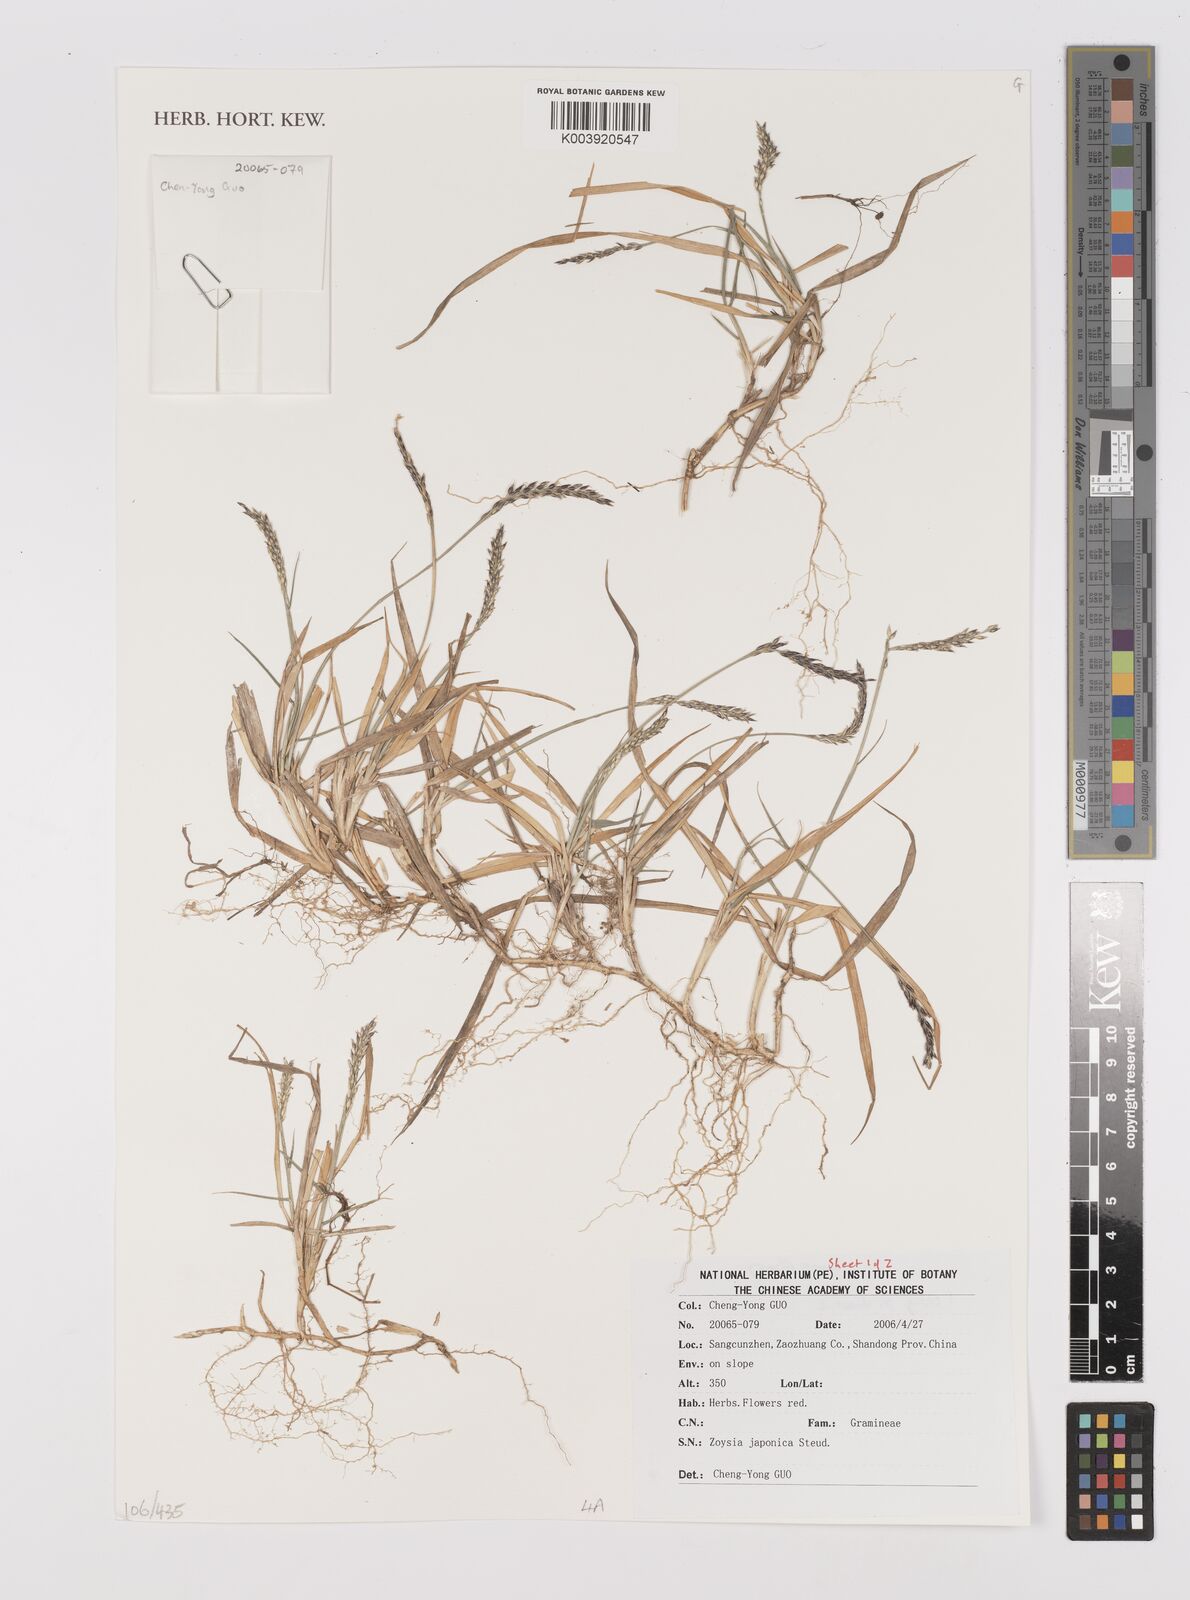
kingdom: Plantae
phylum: Tracheophyta
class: Liliopsida
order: Poales
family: Poaceae
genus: Zoysia
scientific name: Zoysia japonica
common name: Korean lawngrass
